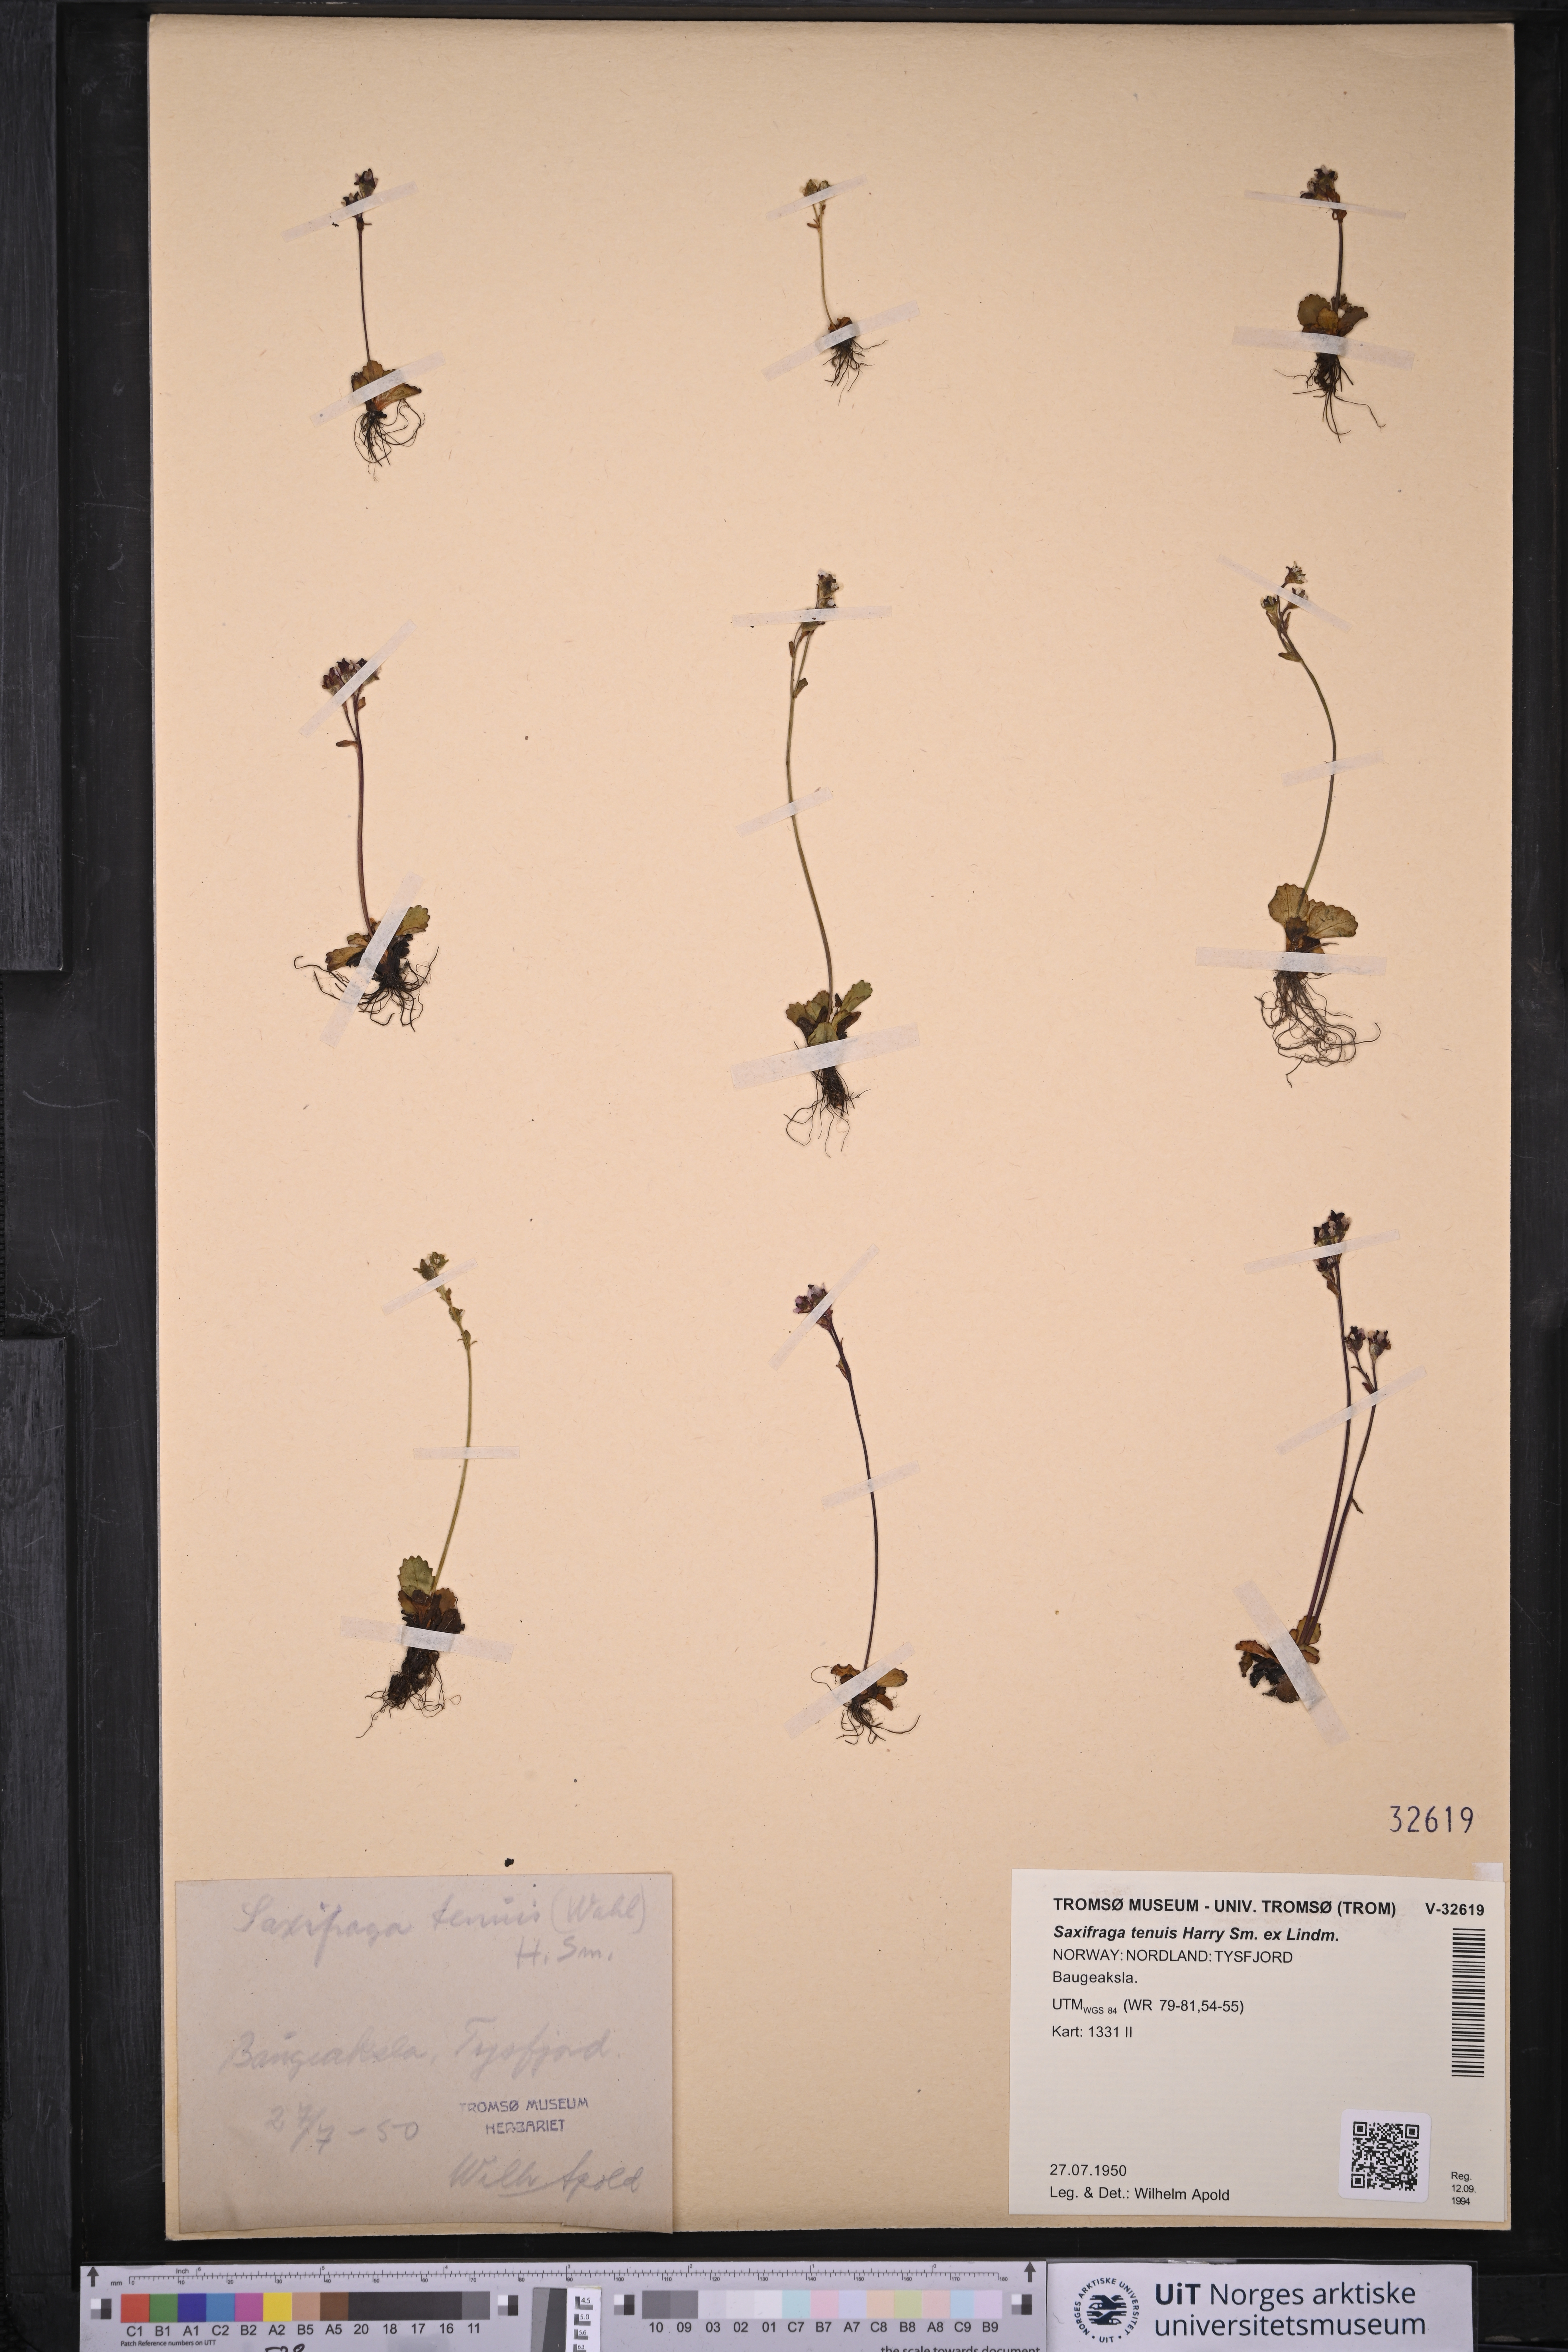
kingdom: Plantae
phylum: Tracheophyta
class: Magnoliopsida
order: Saxifragales
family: Saxifragaceae
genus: Micranthes
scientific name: Micranthes tenuis
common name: Ottertail pass saxifrage
